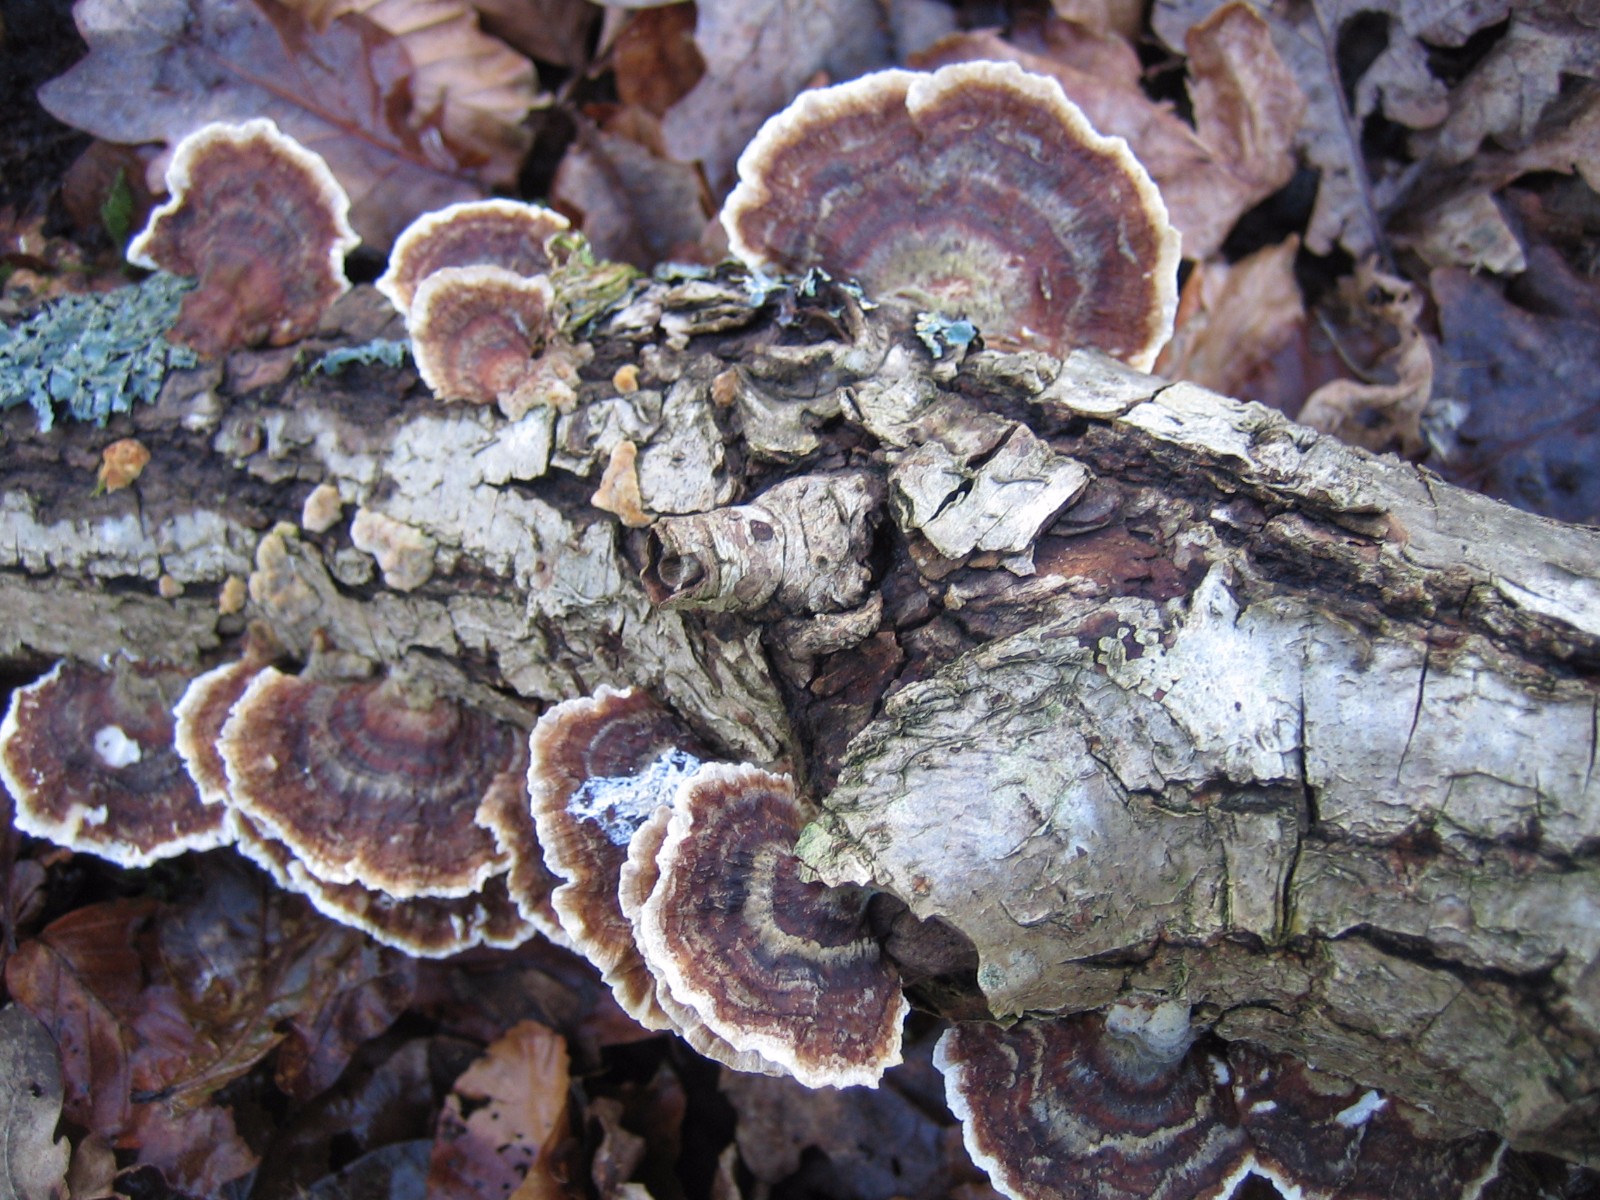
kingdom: Fungi
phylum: Basidiomycota
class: Agaricomycetes
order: Polyporales
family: Polyporaceae
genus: Trametes
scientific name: Trametes versicolor
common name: broget læderporesvamp
